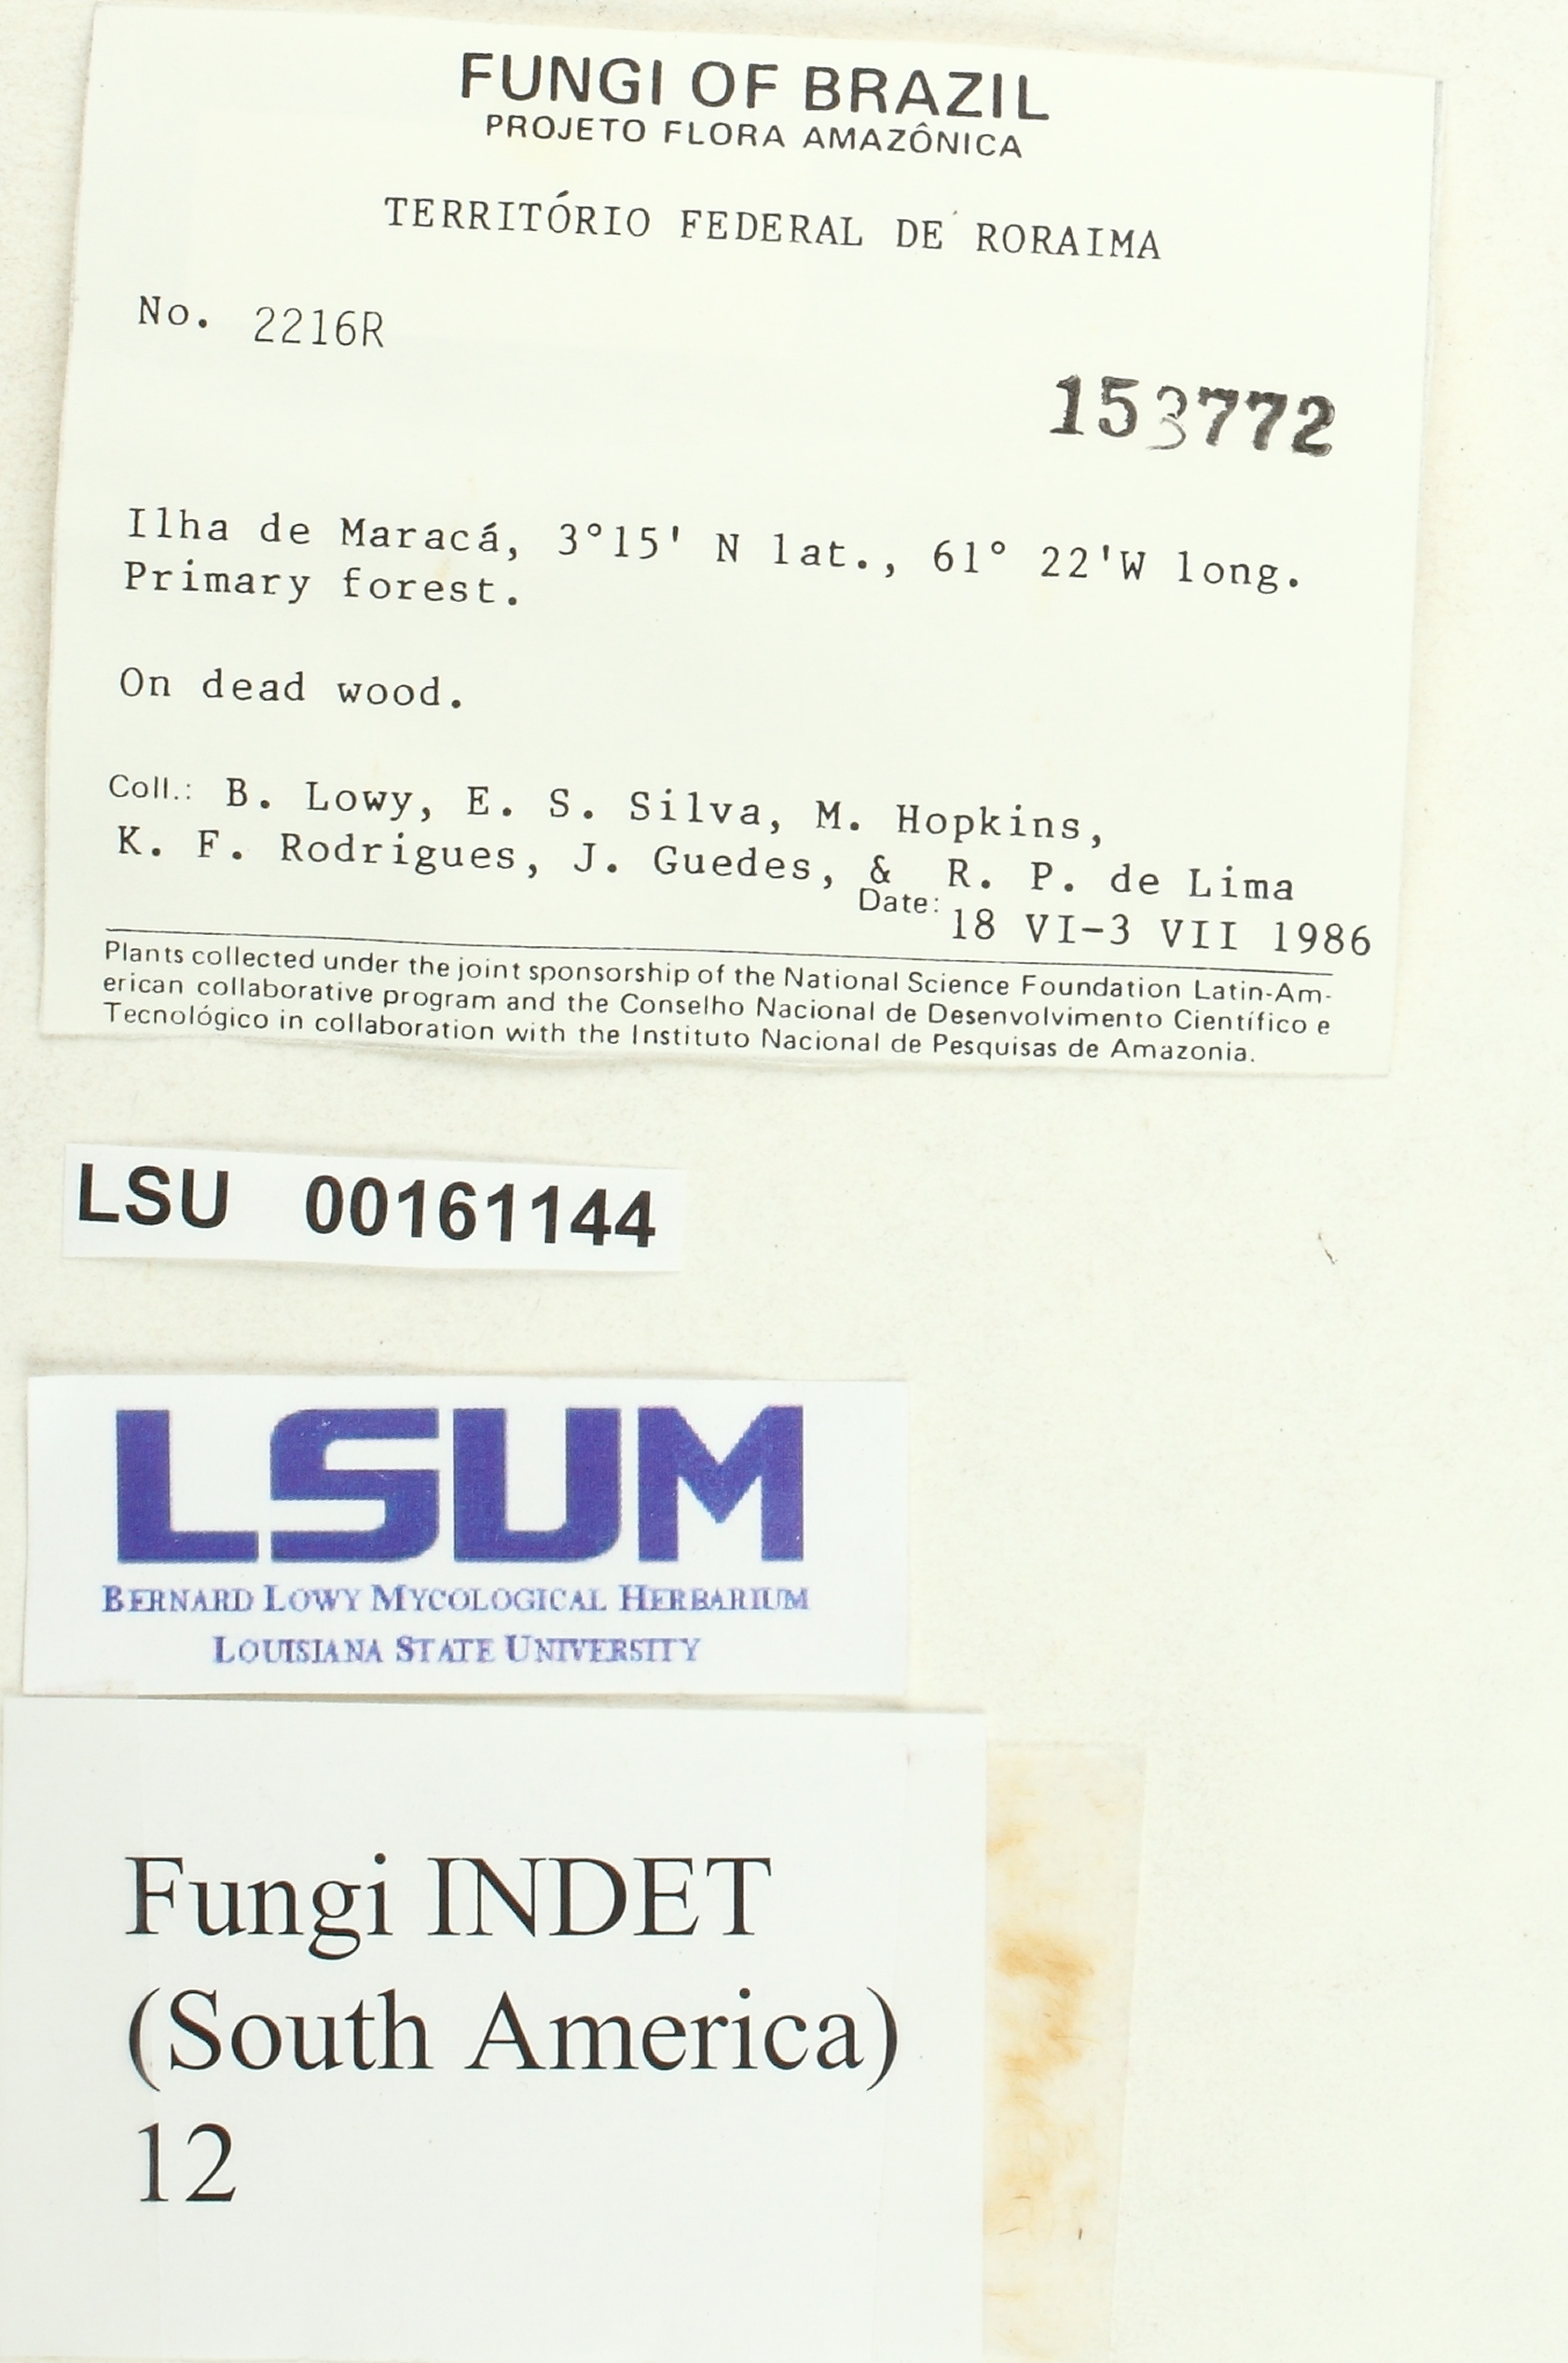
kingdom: Fungi
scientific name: Fungi
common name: Fungi
